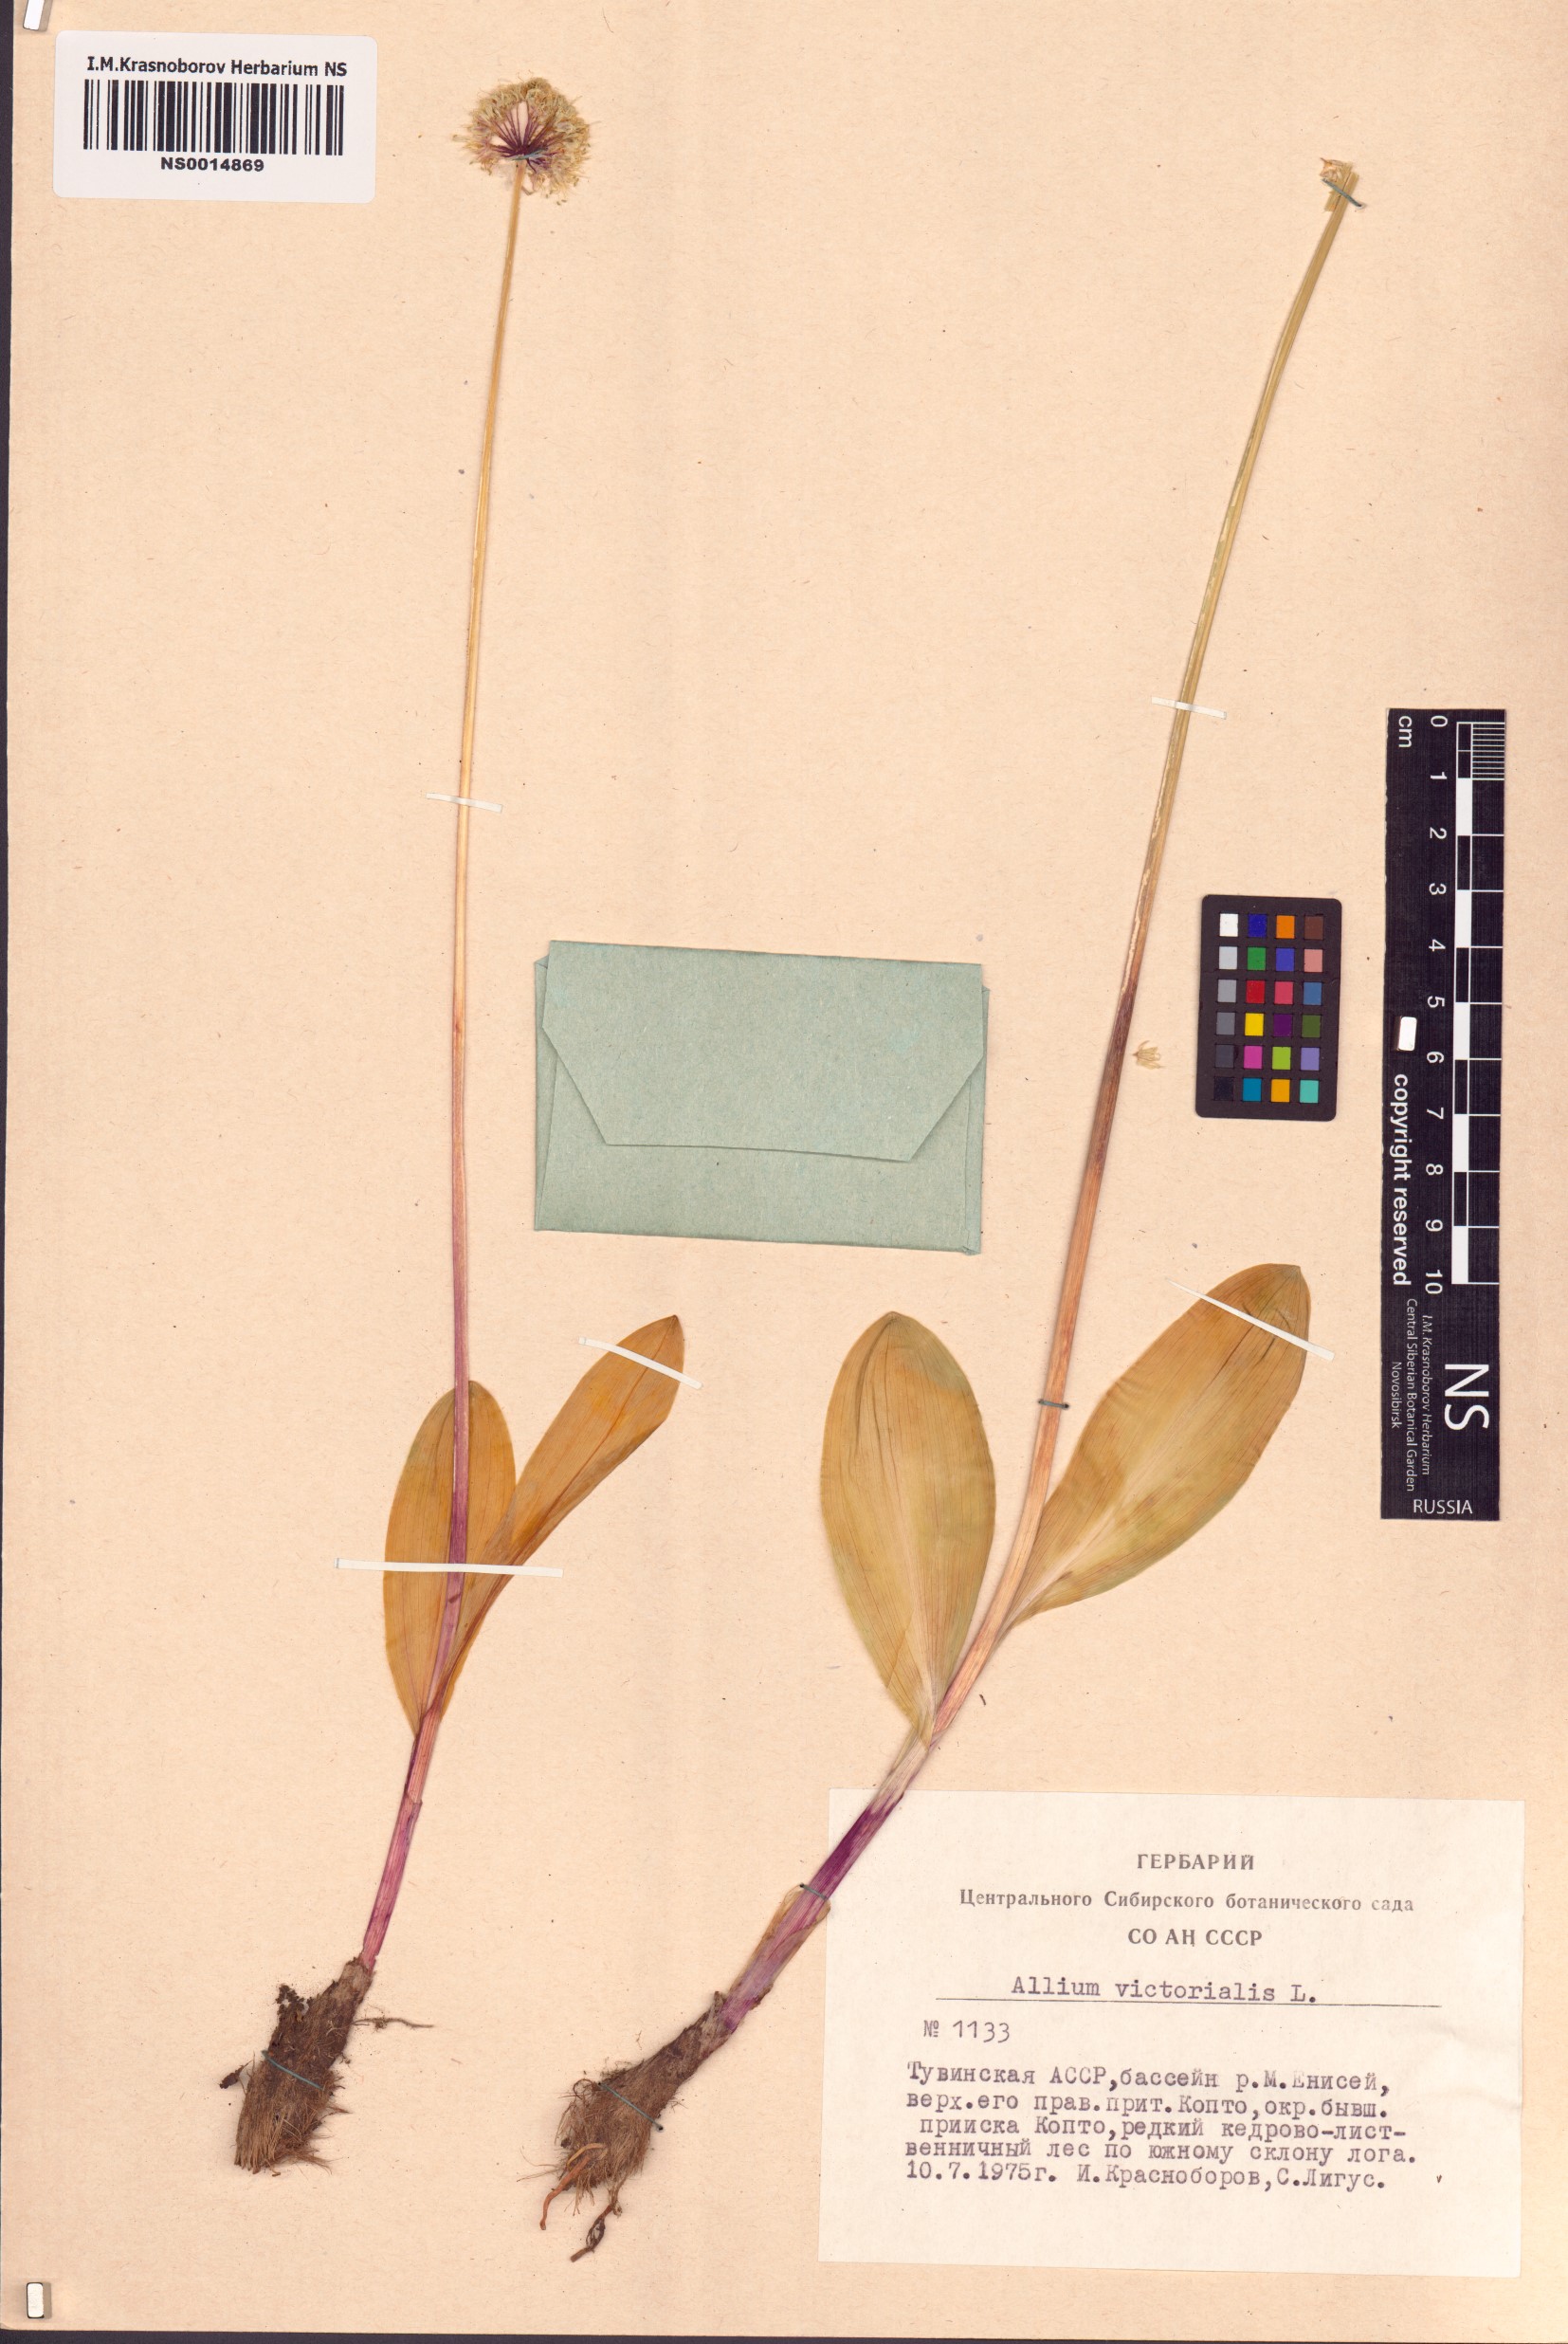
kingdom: Plantae
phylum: Tracheophyta
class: Liliopsida
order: Asparagales
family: Amaryllidaceae
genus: Allium
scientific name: Allium victorialis
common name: Alpine leek
